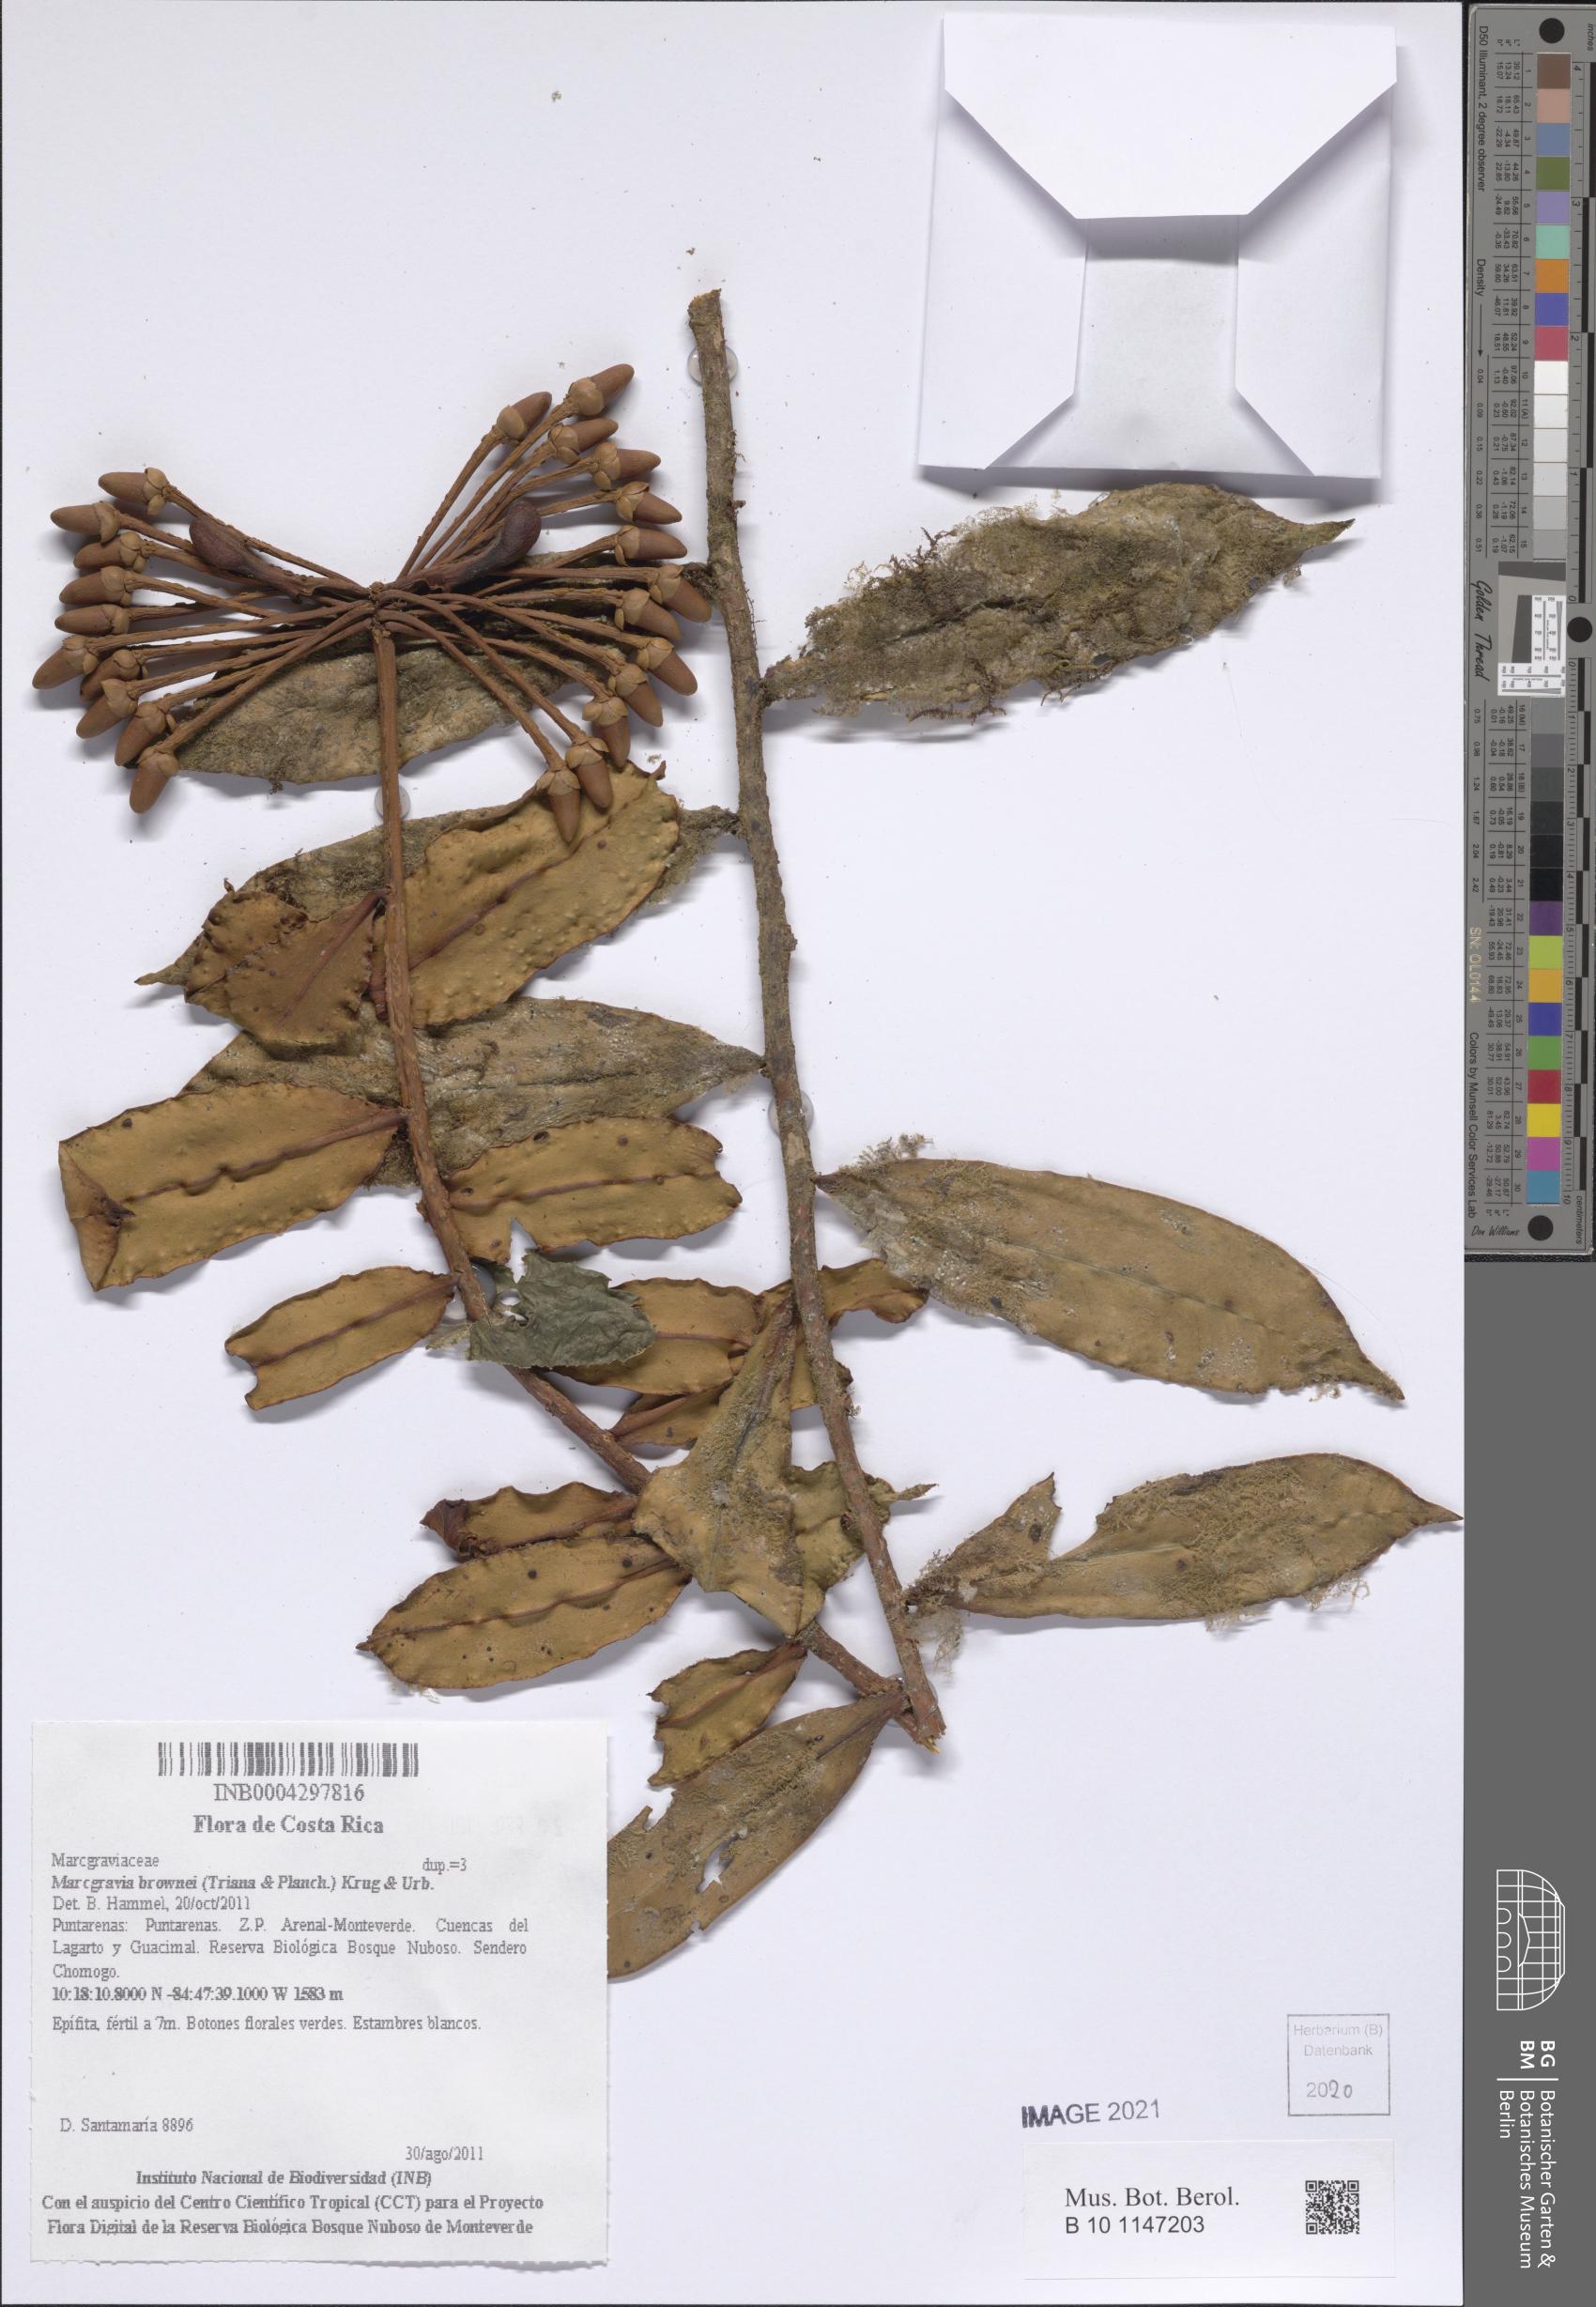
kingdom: Plantae
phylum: Tracheophyta
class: Magnoliopsida
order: Ericales
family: Marcgraviaceae
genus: Marcgravia
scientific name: Marcgravia brownei
